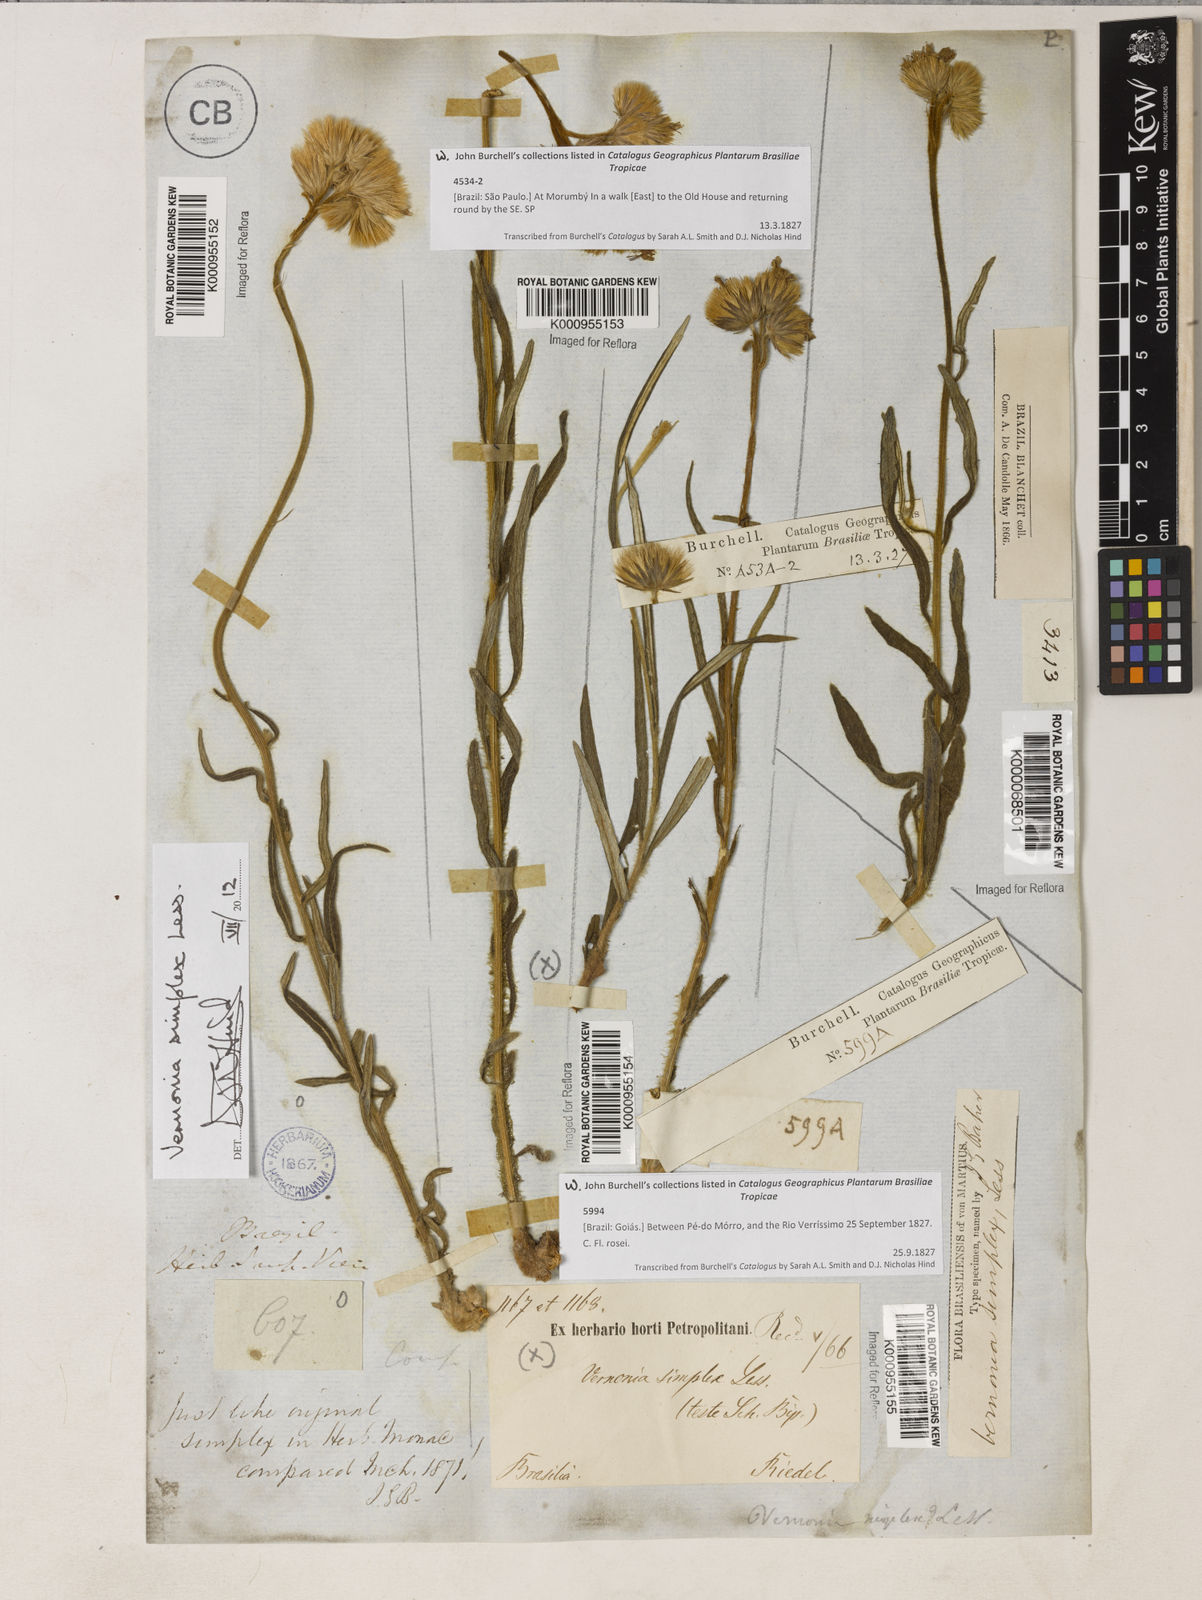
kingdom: Plantae
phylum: Tracheophyta
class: Magnoliopsida
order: Asterales
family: Asteraceae
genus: Chrysolaena
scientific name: Chrysolaena simplex
